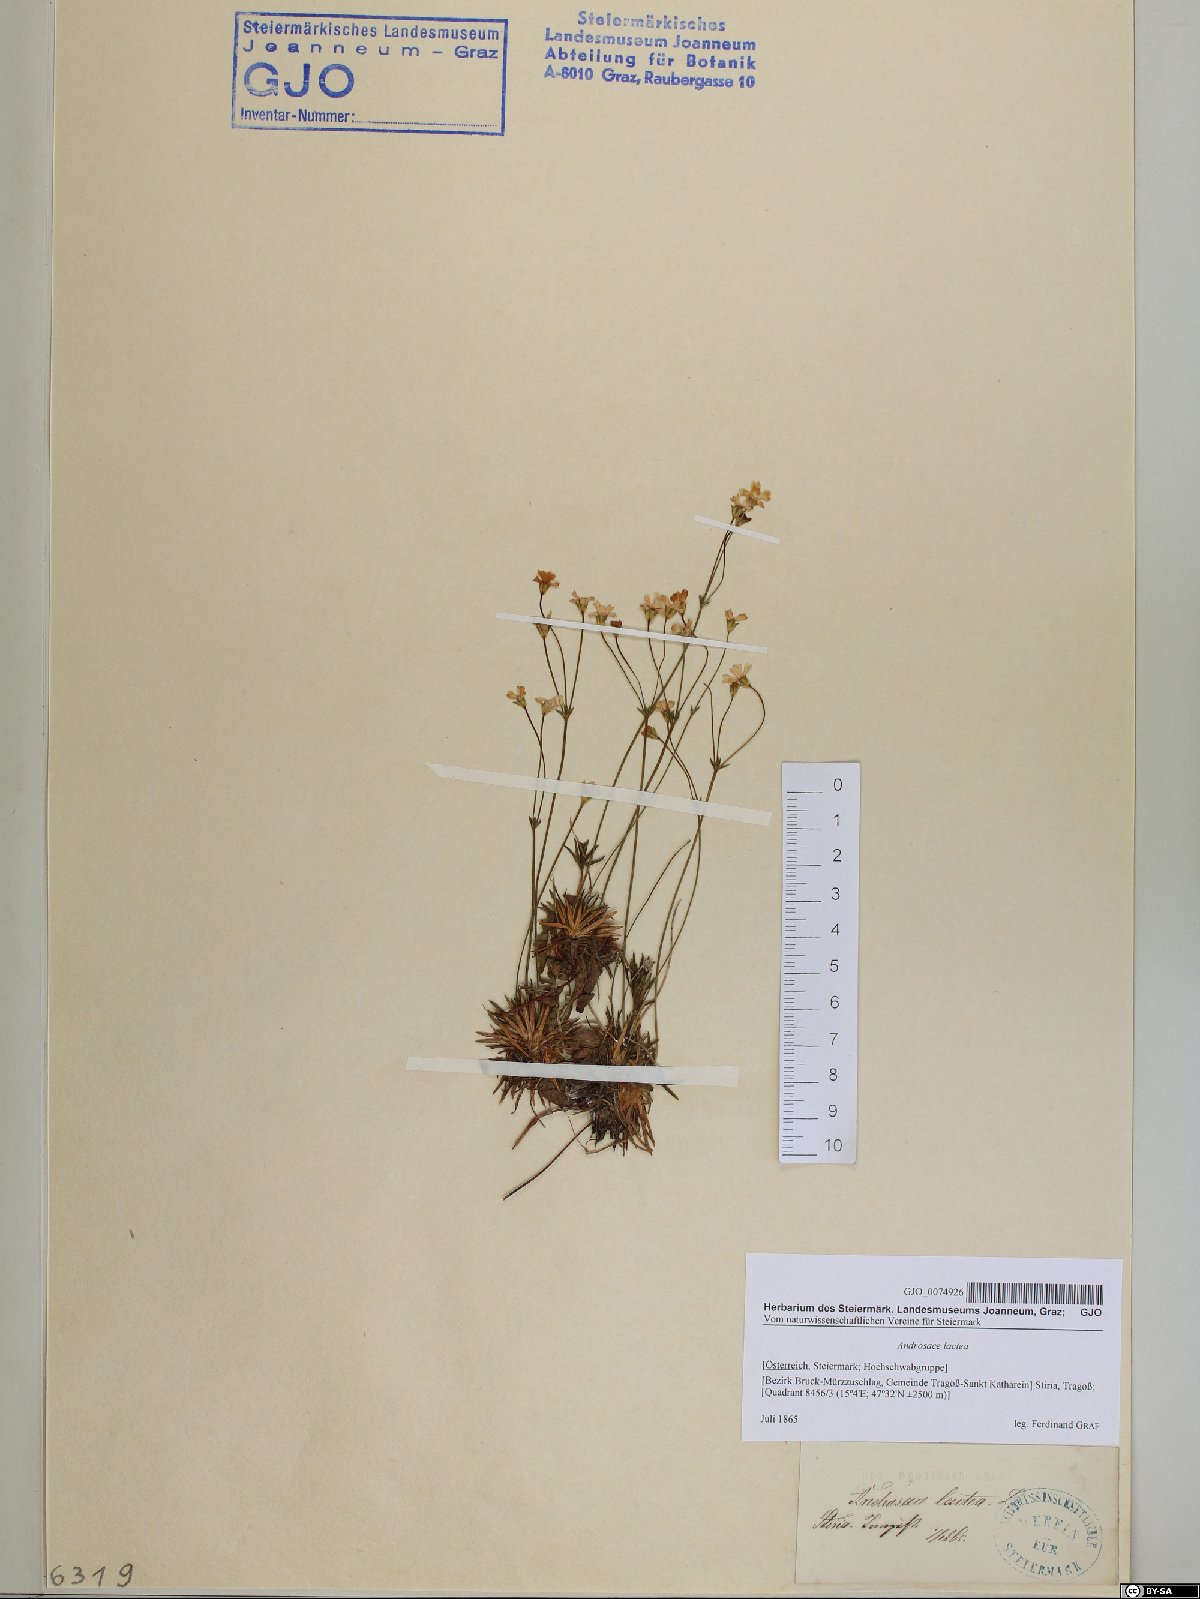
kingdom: Plantae
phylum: Tracheophyta
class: Magnoliopsida
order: Ericales
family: Primulaceae
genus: Androsace
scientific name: Androsace lactea
